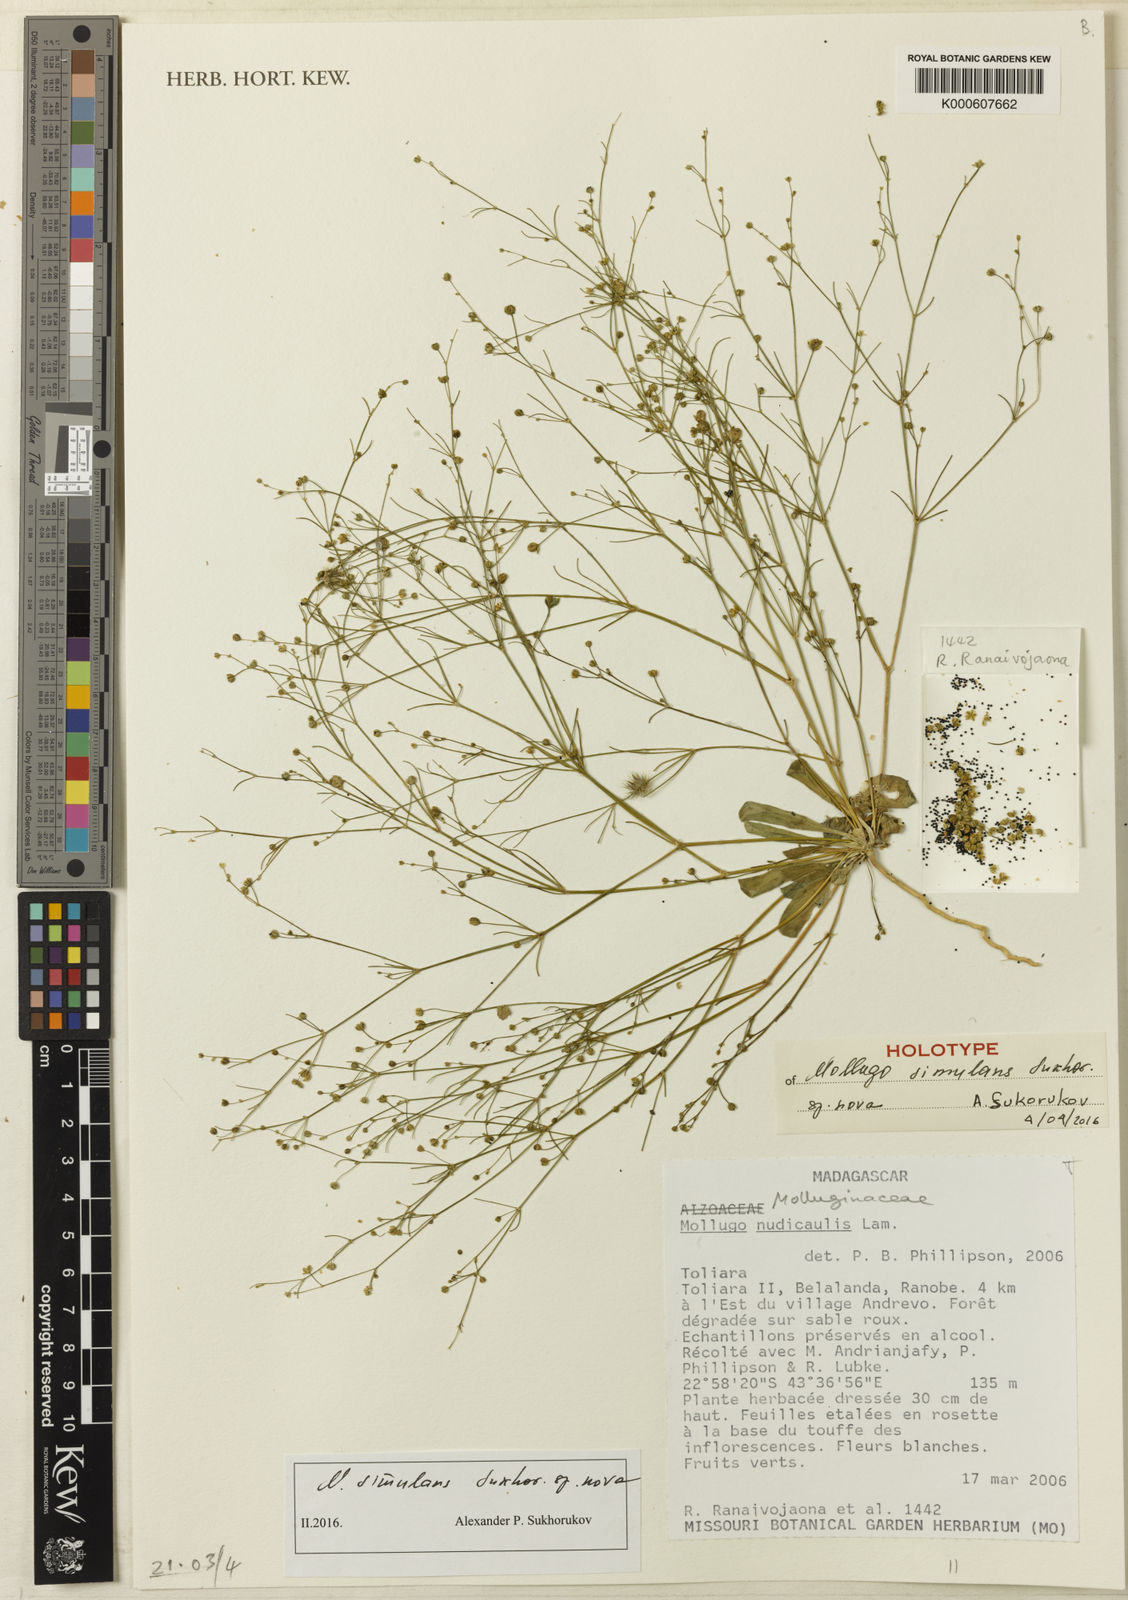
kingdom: Plantae
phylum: Tracheophyta
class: Magnoliopsida
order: Caryophyllales
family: Molluginaceae
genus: Mollugo
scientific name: Mollugo
